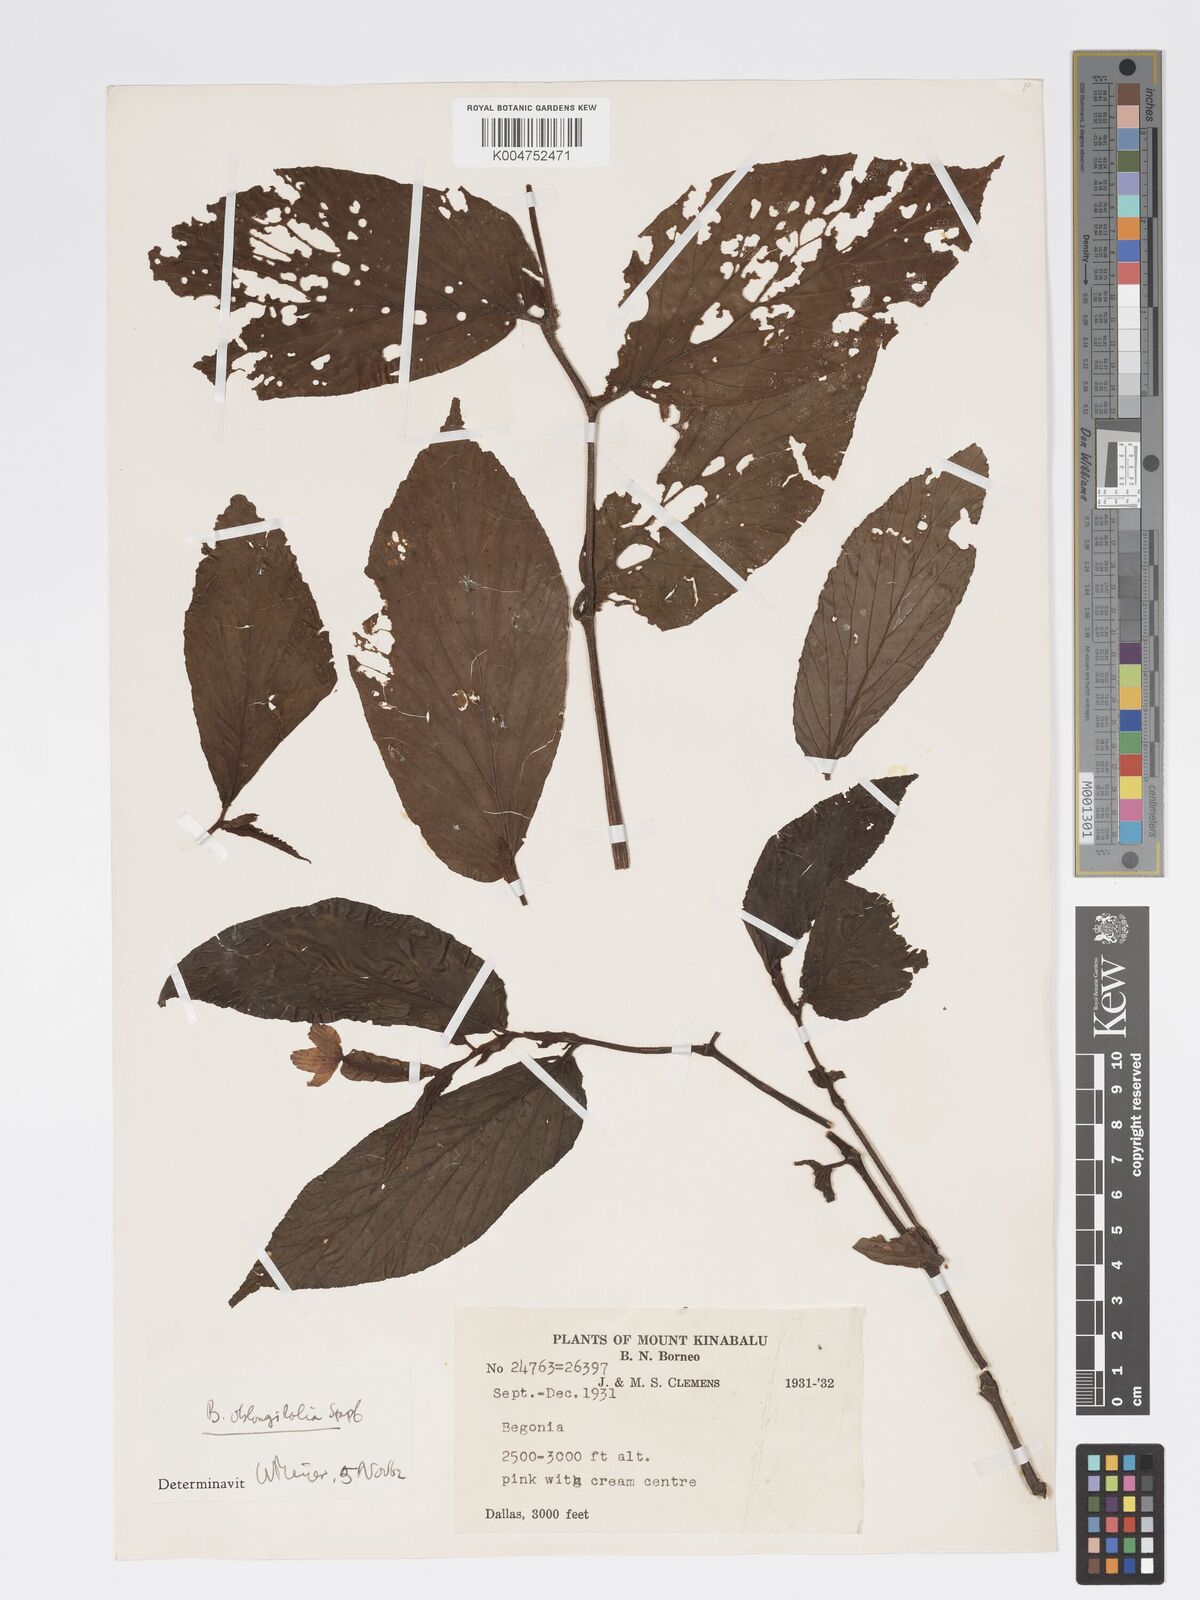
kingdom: Plantae
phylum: Tracheophyta
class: Magnoliopsida
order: Cucurbitales
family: Begoniaceae
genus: Begonia
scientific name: Begonia oblongifolia
